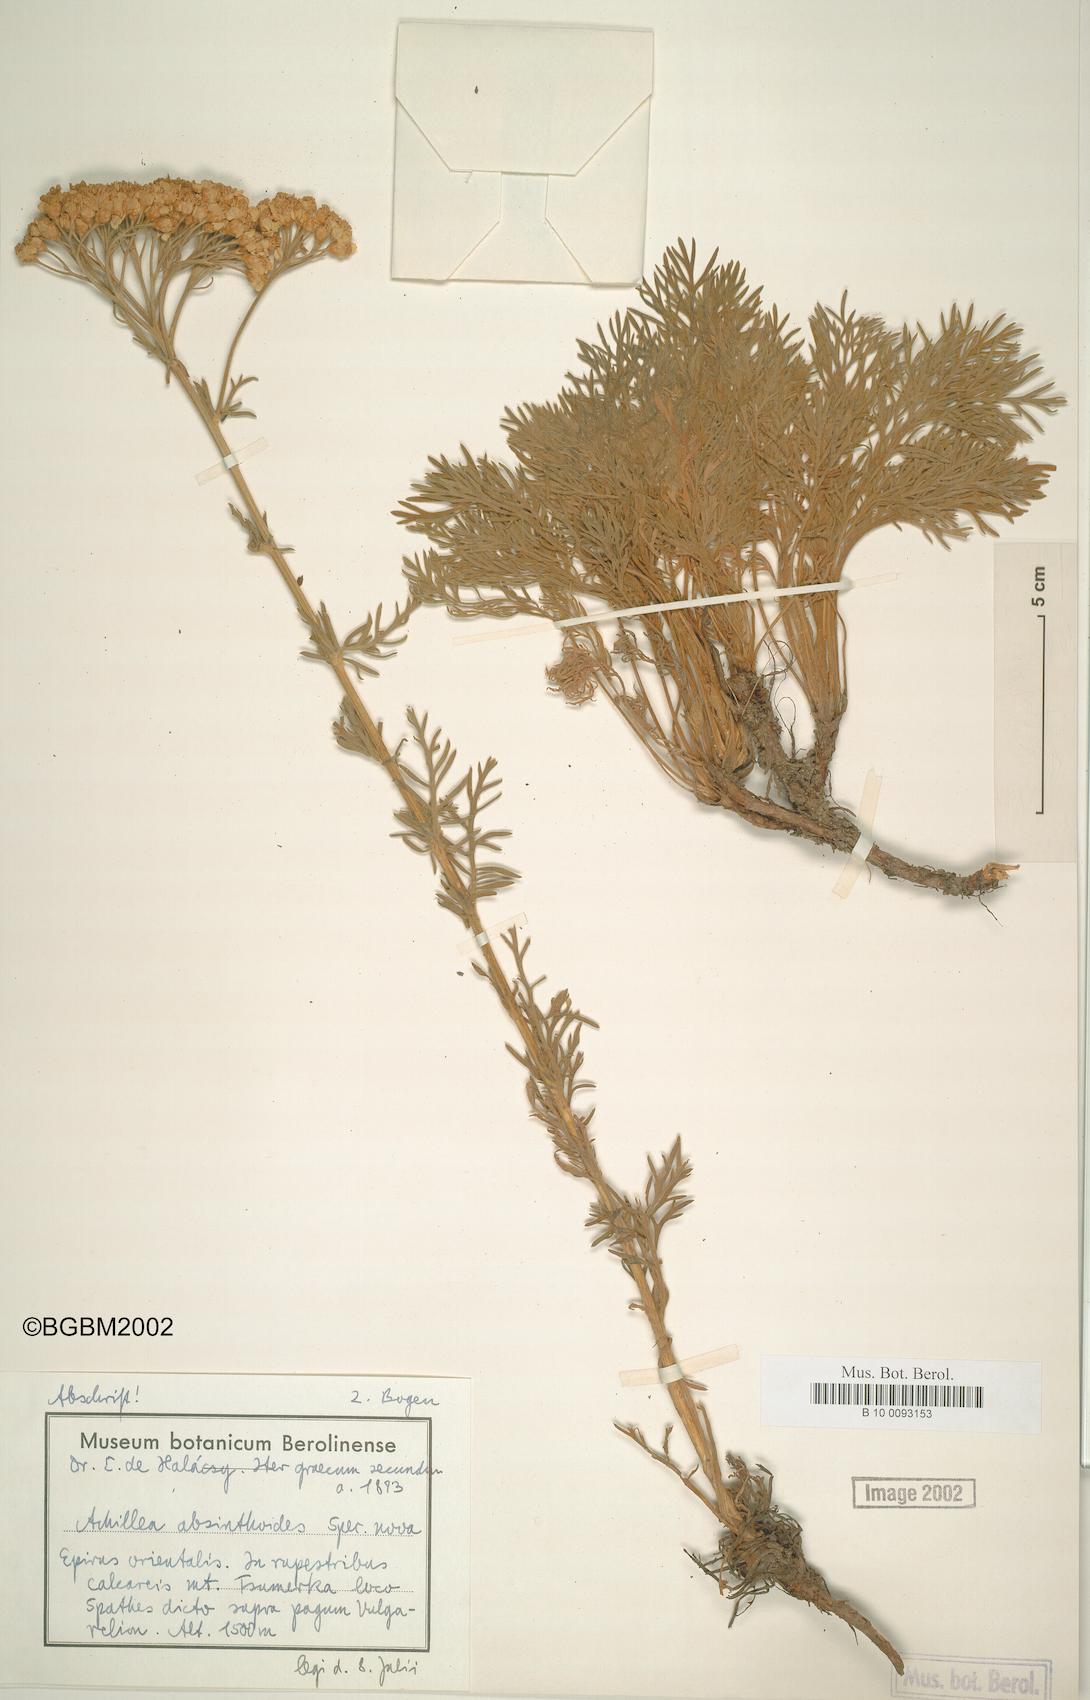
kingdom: Plantae
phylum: Tracheophyta
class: Magnoliopsida
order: Asterales
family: Asteraceae
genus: Achillea
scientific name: Achillea absinthoides
